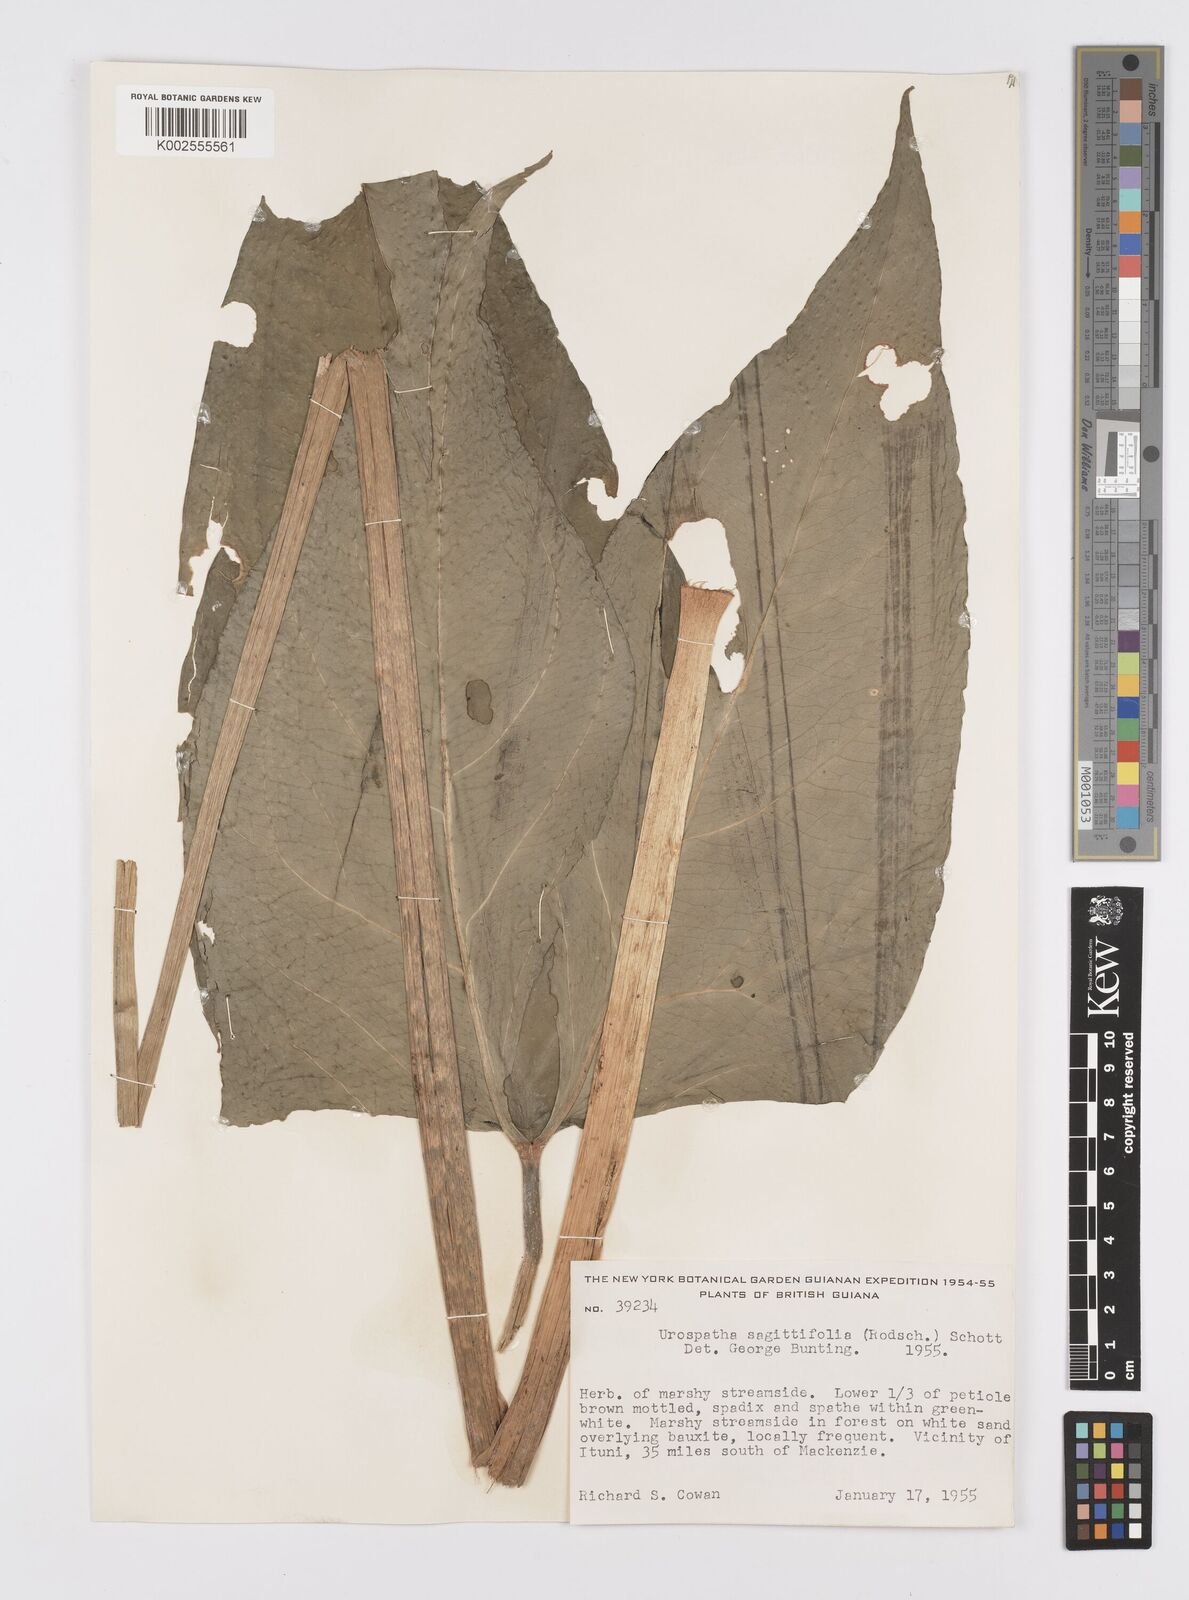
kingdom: Plantae
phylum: Tracheophyta
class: Liliopsida
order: Alismatales
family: Araceae
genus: Urospatha
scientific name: Urospatha sagittifolia
